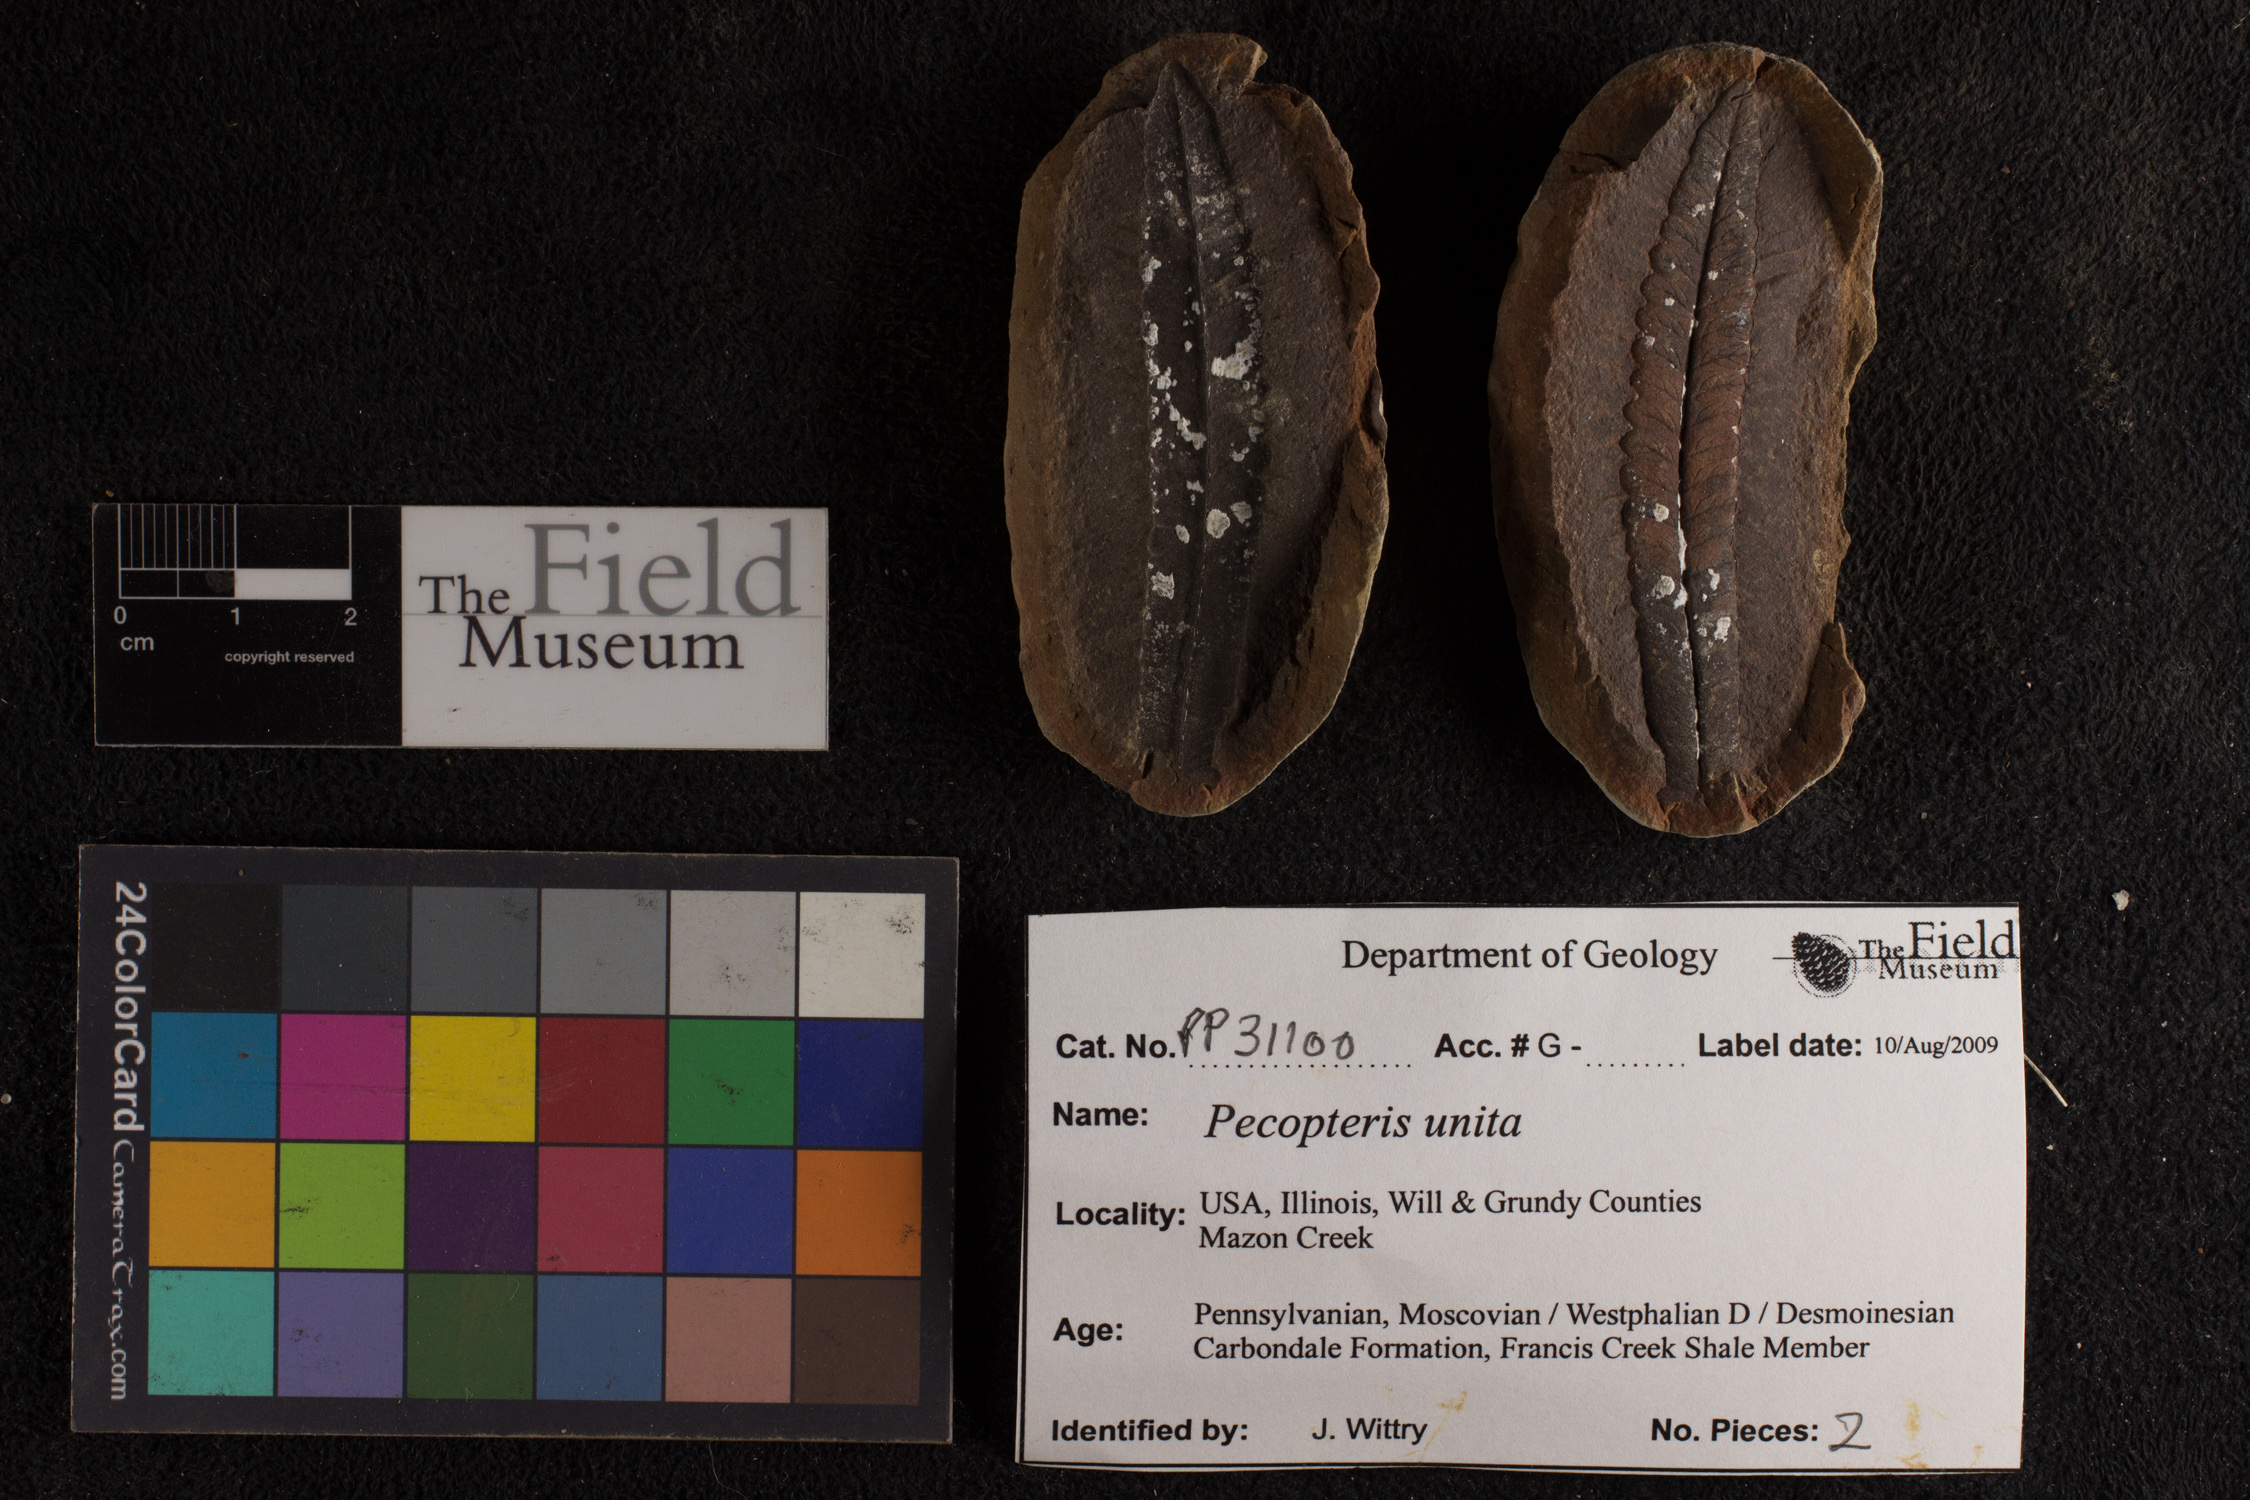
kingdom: Plantae
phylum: Tracheophyta
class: Polypodiopsida
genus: Diplazites
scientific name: Diplazites
